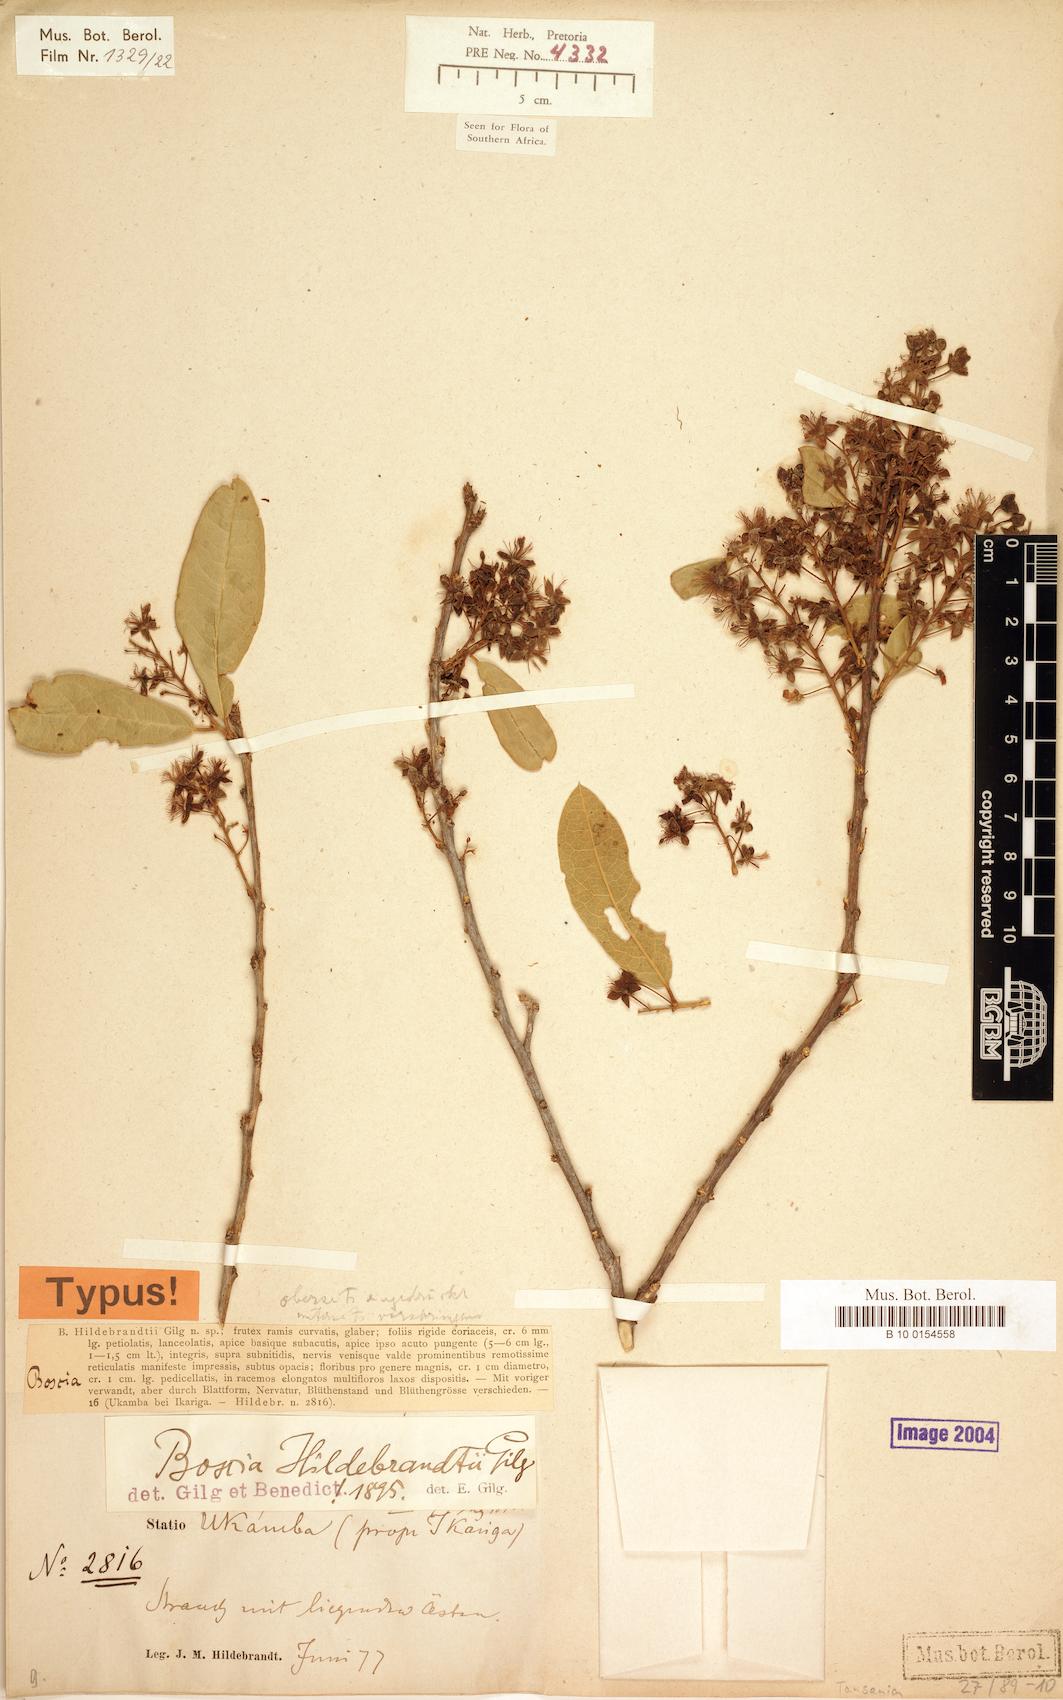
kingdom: Plantae
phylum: Tracheophyta
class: Magnoliopsida
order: Brassicales
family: Capparaceae
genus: Boscia
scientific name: Boscia mossambicensis
